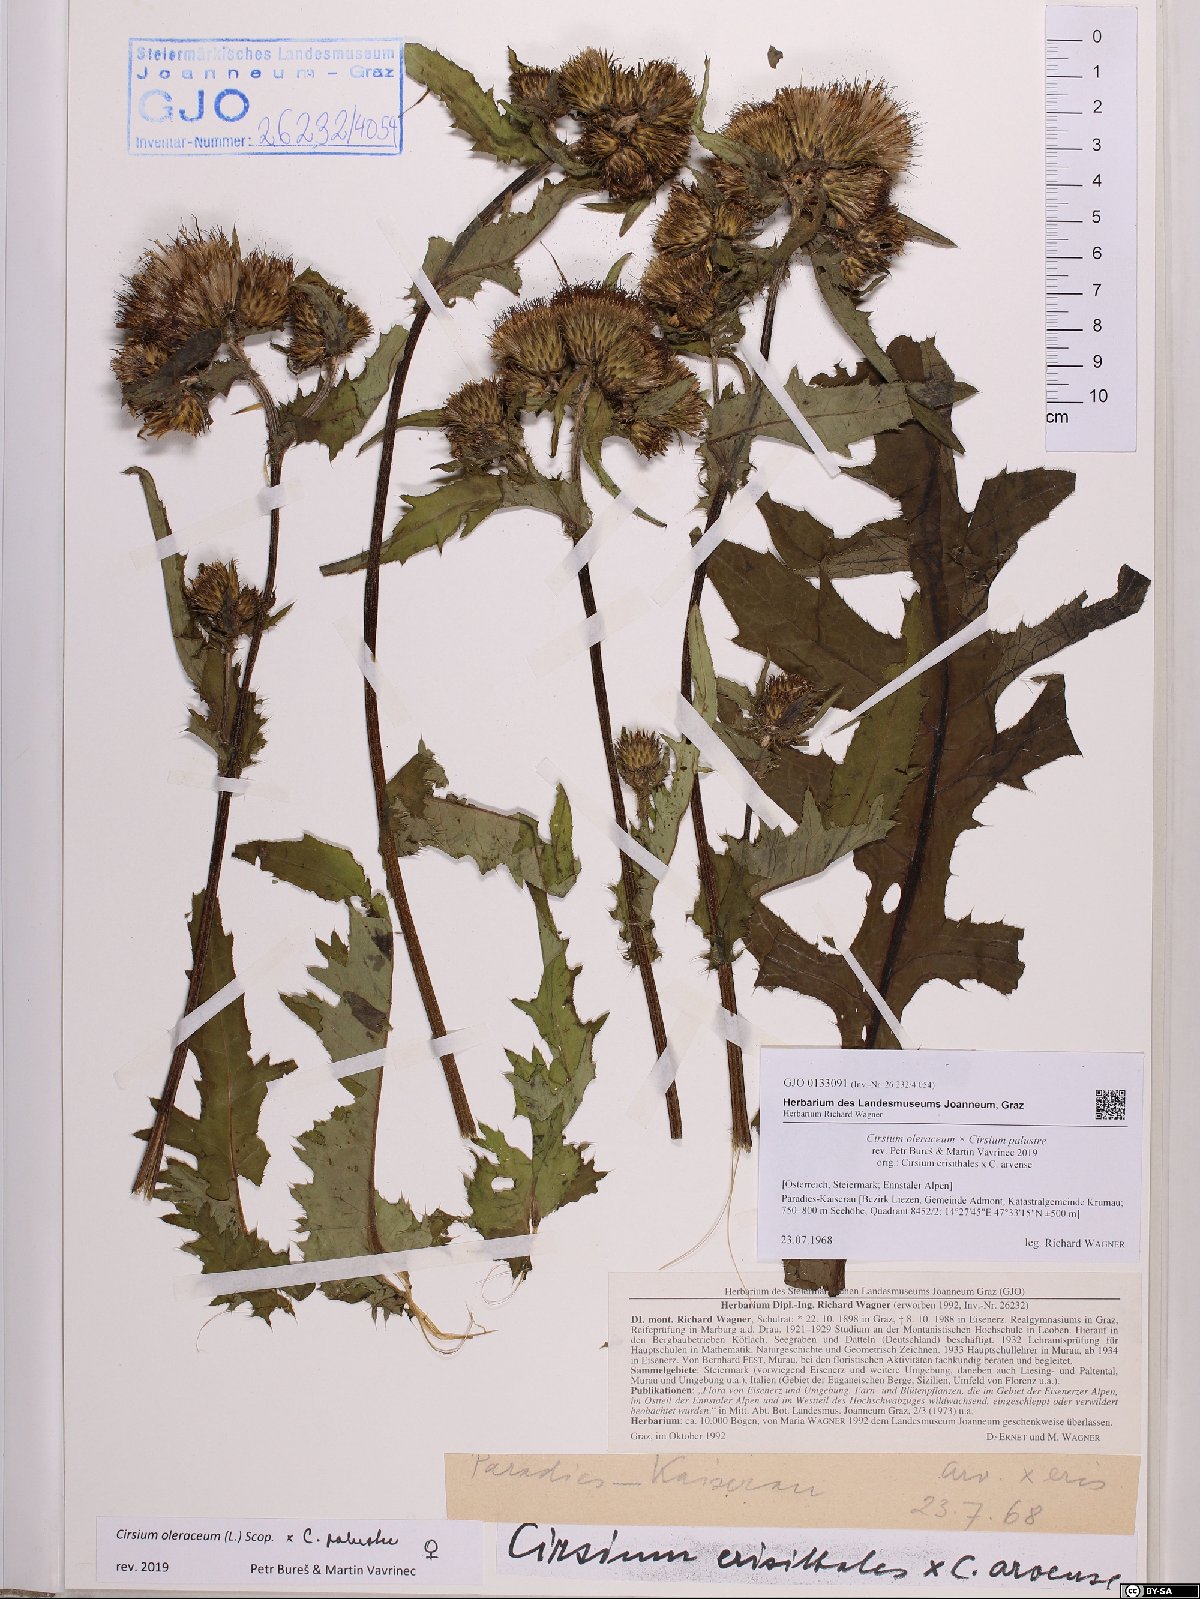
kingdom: Plantae
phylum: Tracheophyta
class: Magnoliopsida
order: Asterales
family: Asteraceae
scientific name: Asteraceae
